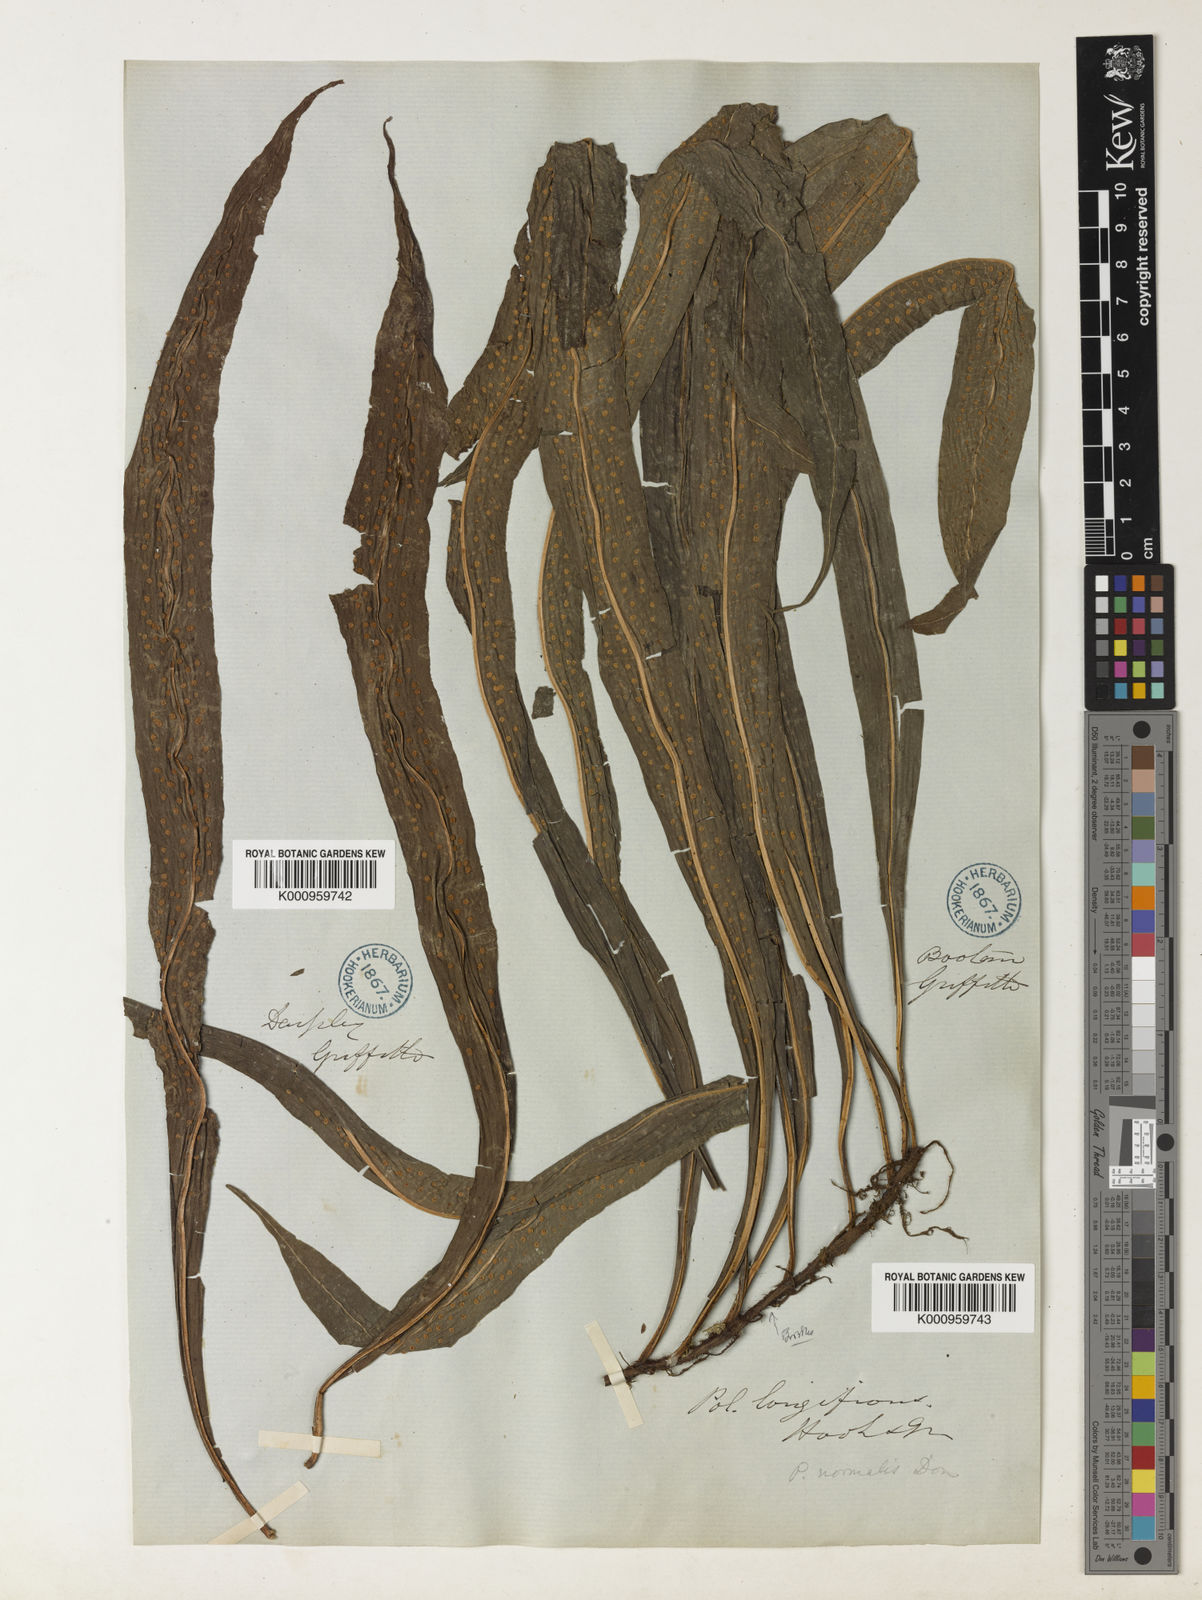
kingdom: Plantae
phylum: Tracheophyta
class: Polypodiopsida
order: Polypodiales
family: Polypodiaceae
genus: Lepisorus
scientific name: Lepisorus normalis
